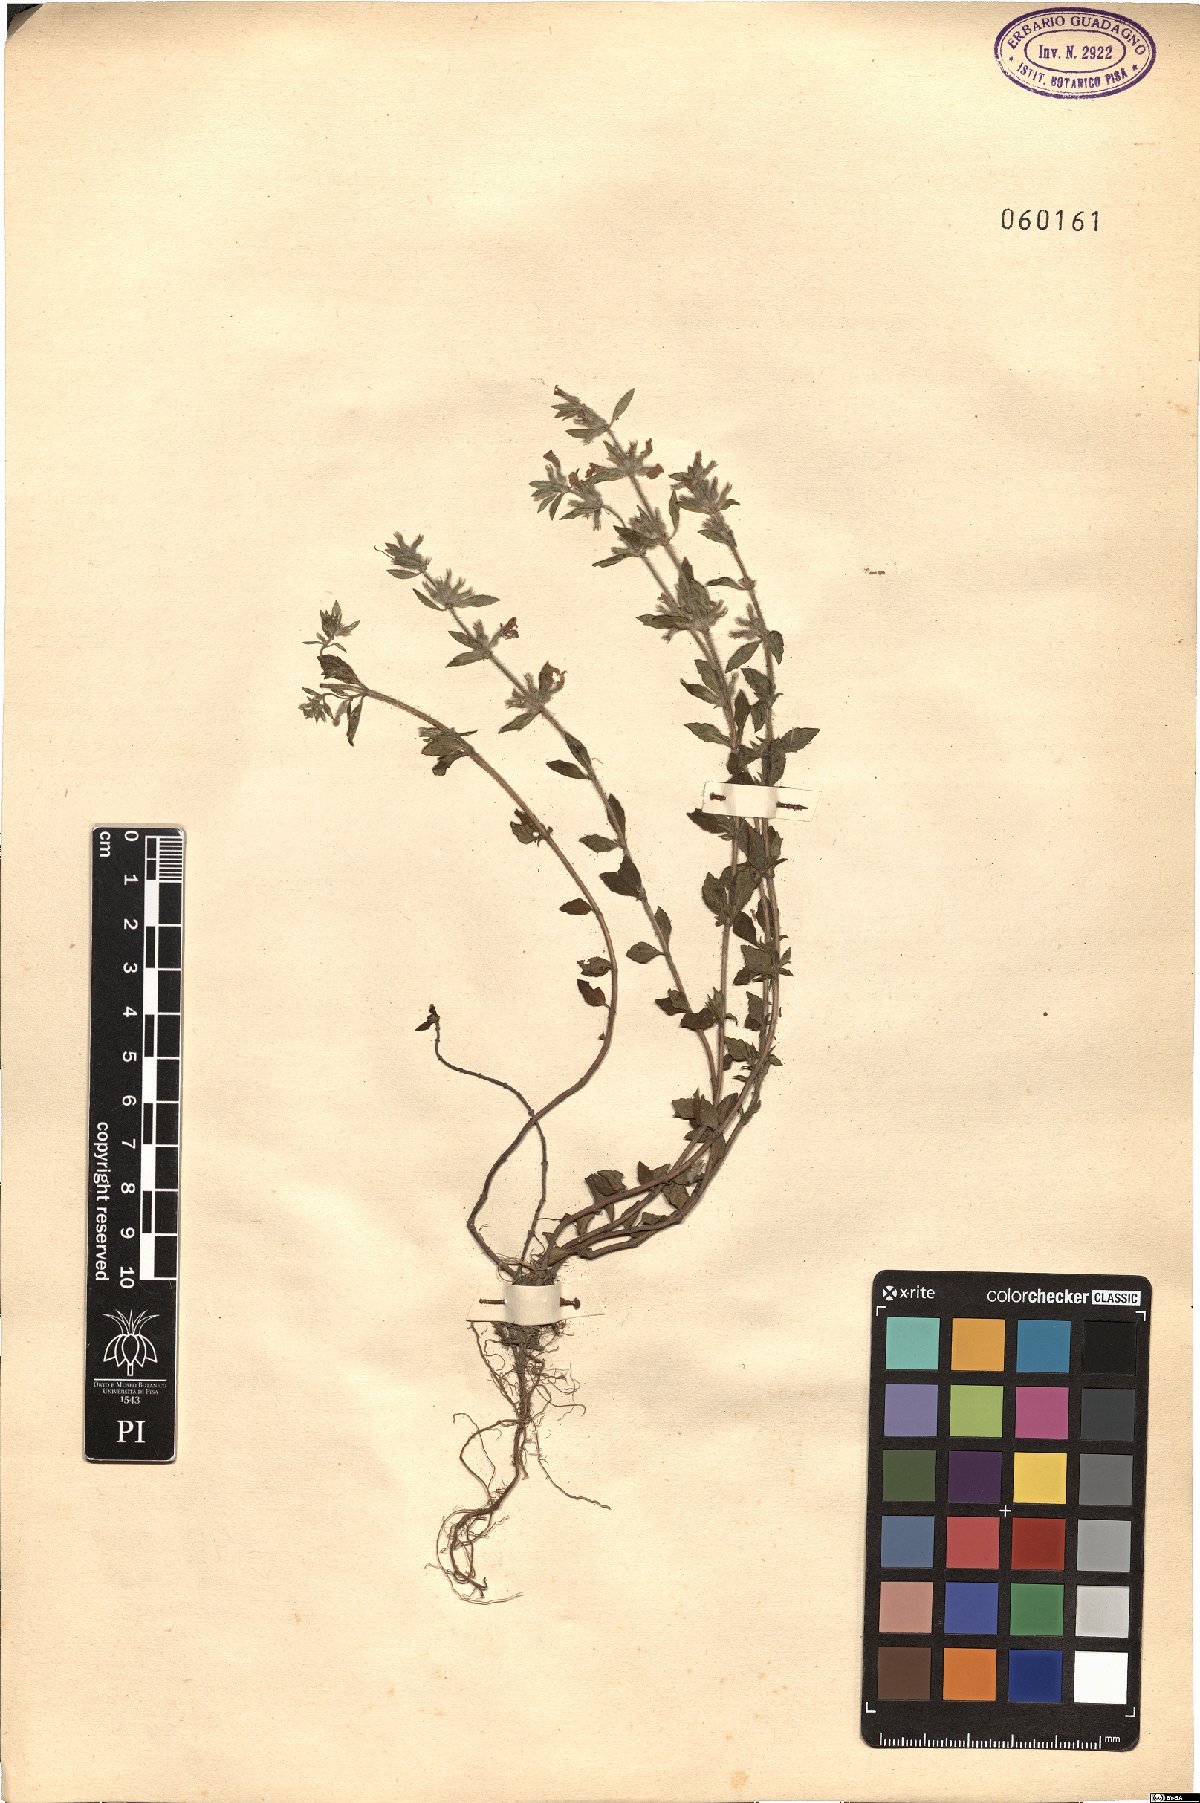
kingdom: Plantae
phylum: Tracheophyta
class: Magnoliopsida
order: Lamiales
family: Lamiaceae
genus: Ziziphora
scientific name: Ziziphora
